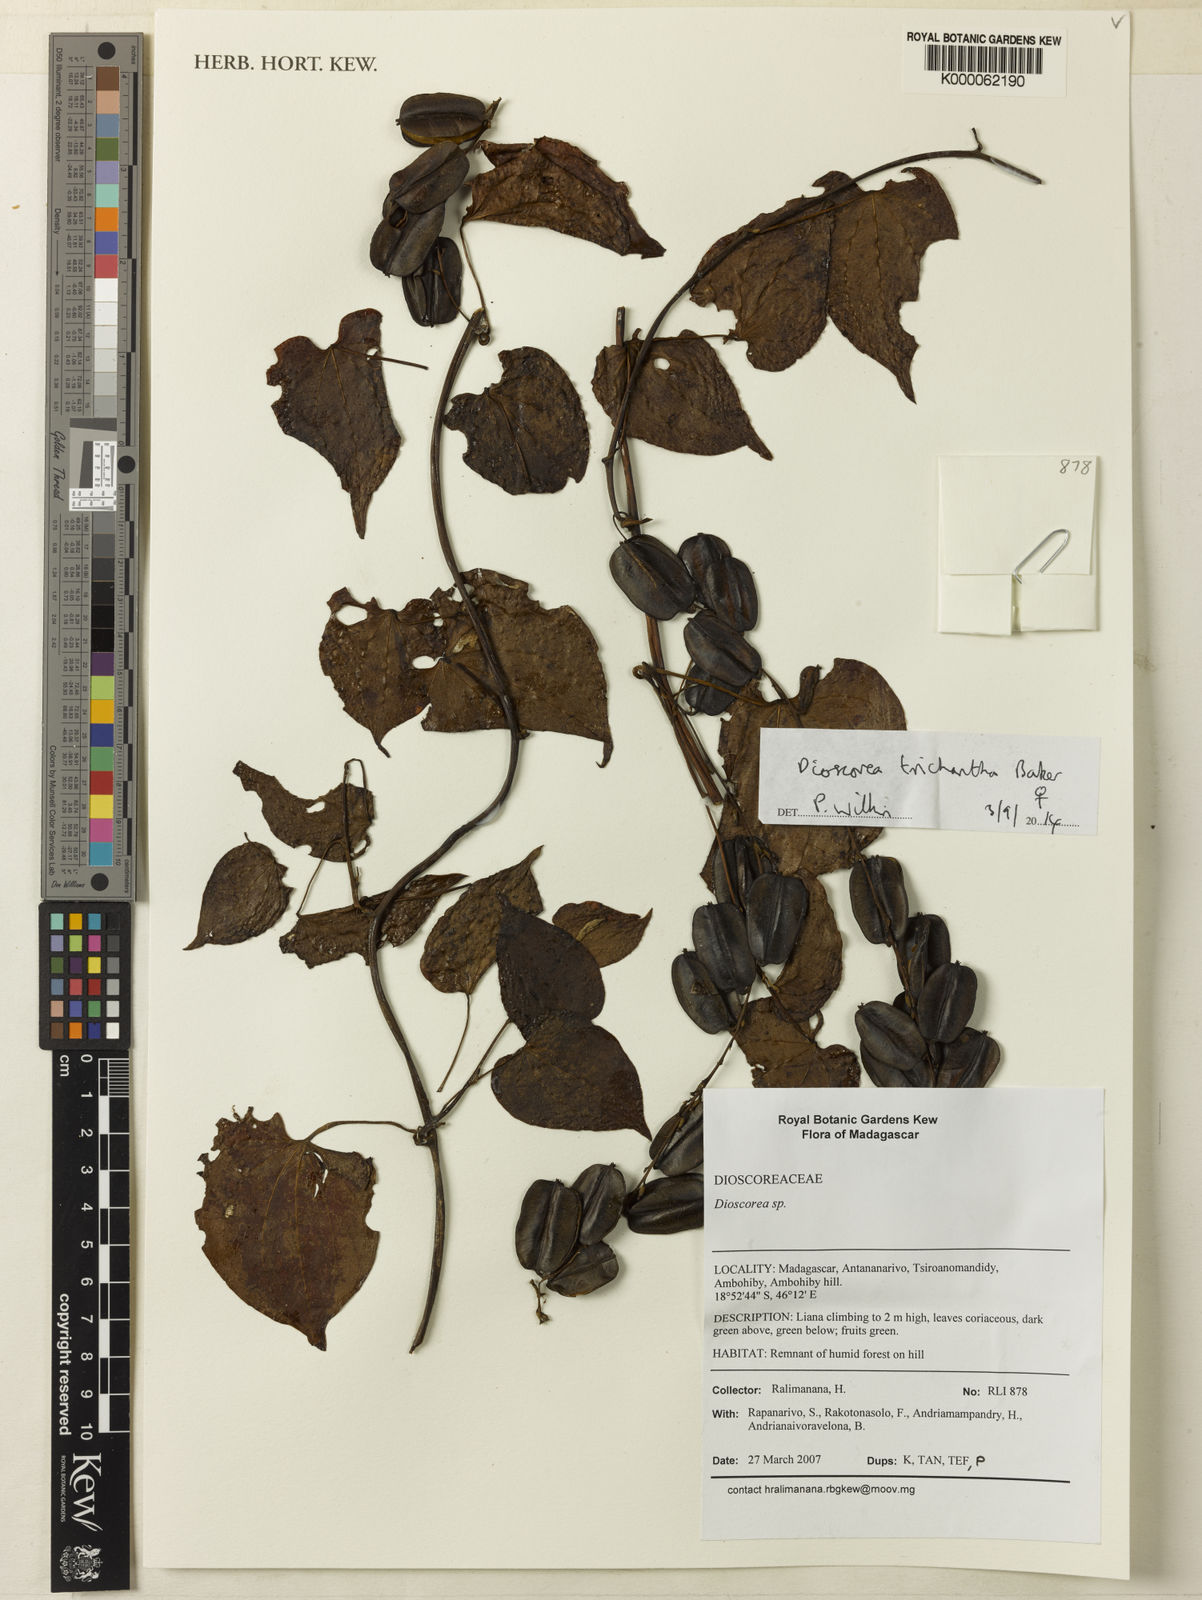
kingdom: Plantae
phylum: Tracheophyta
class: Liliopsida
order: Dioscoreales
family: Dioscoreaceae
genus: Dioscorea
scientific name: Dioscorea trichantha
